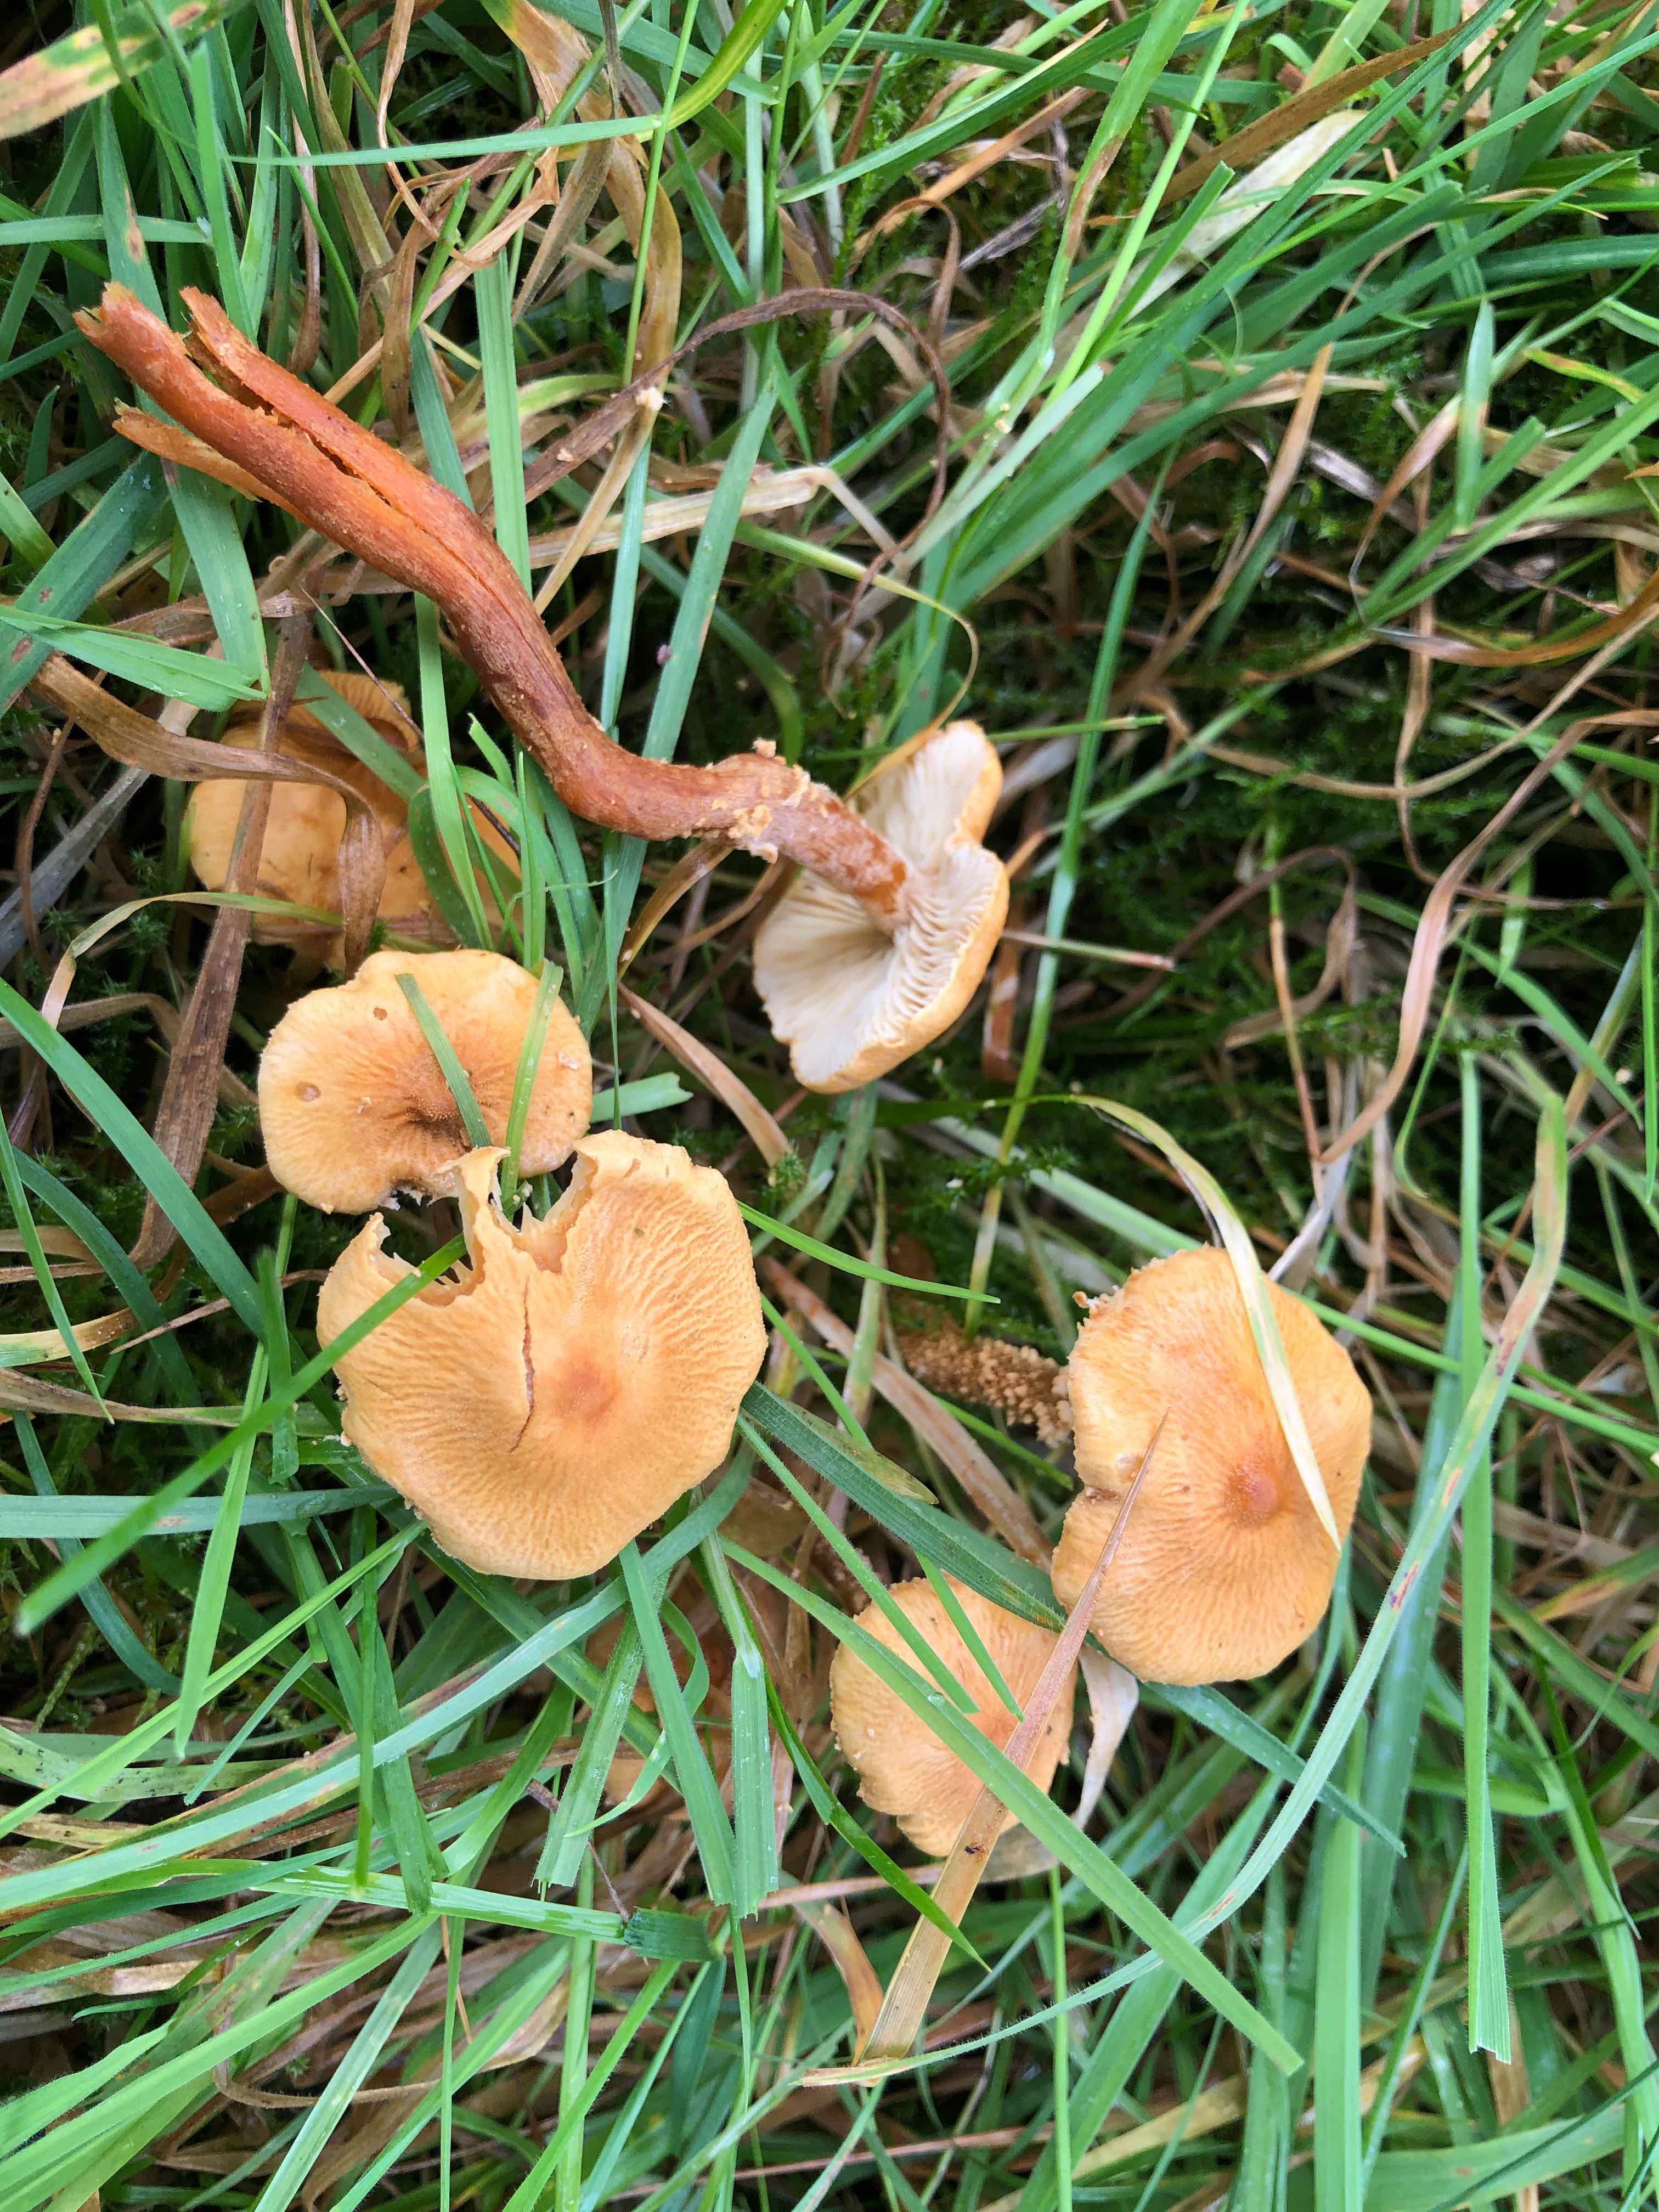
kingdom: Fungi
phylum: Basidiomycota
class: Agaricomycetes
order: Agaricales
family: Tricholomataceae
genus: Cystoderma
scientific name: Cystoderma amianthinum
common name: okkergul grynhat
